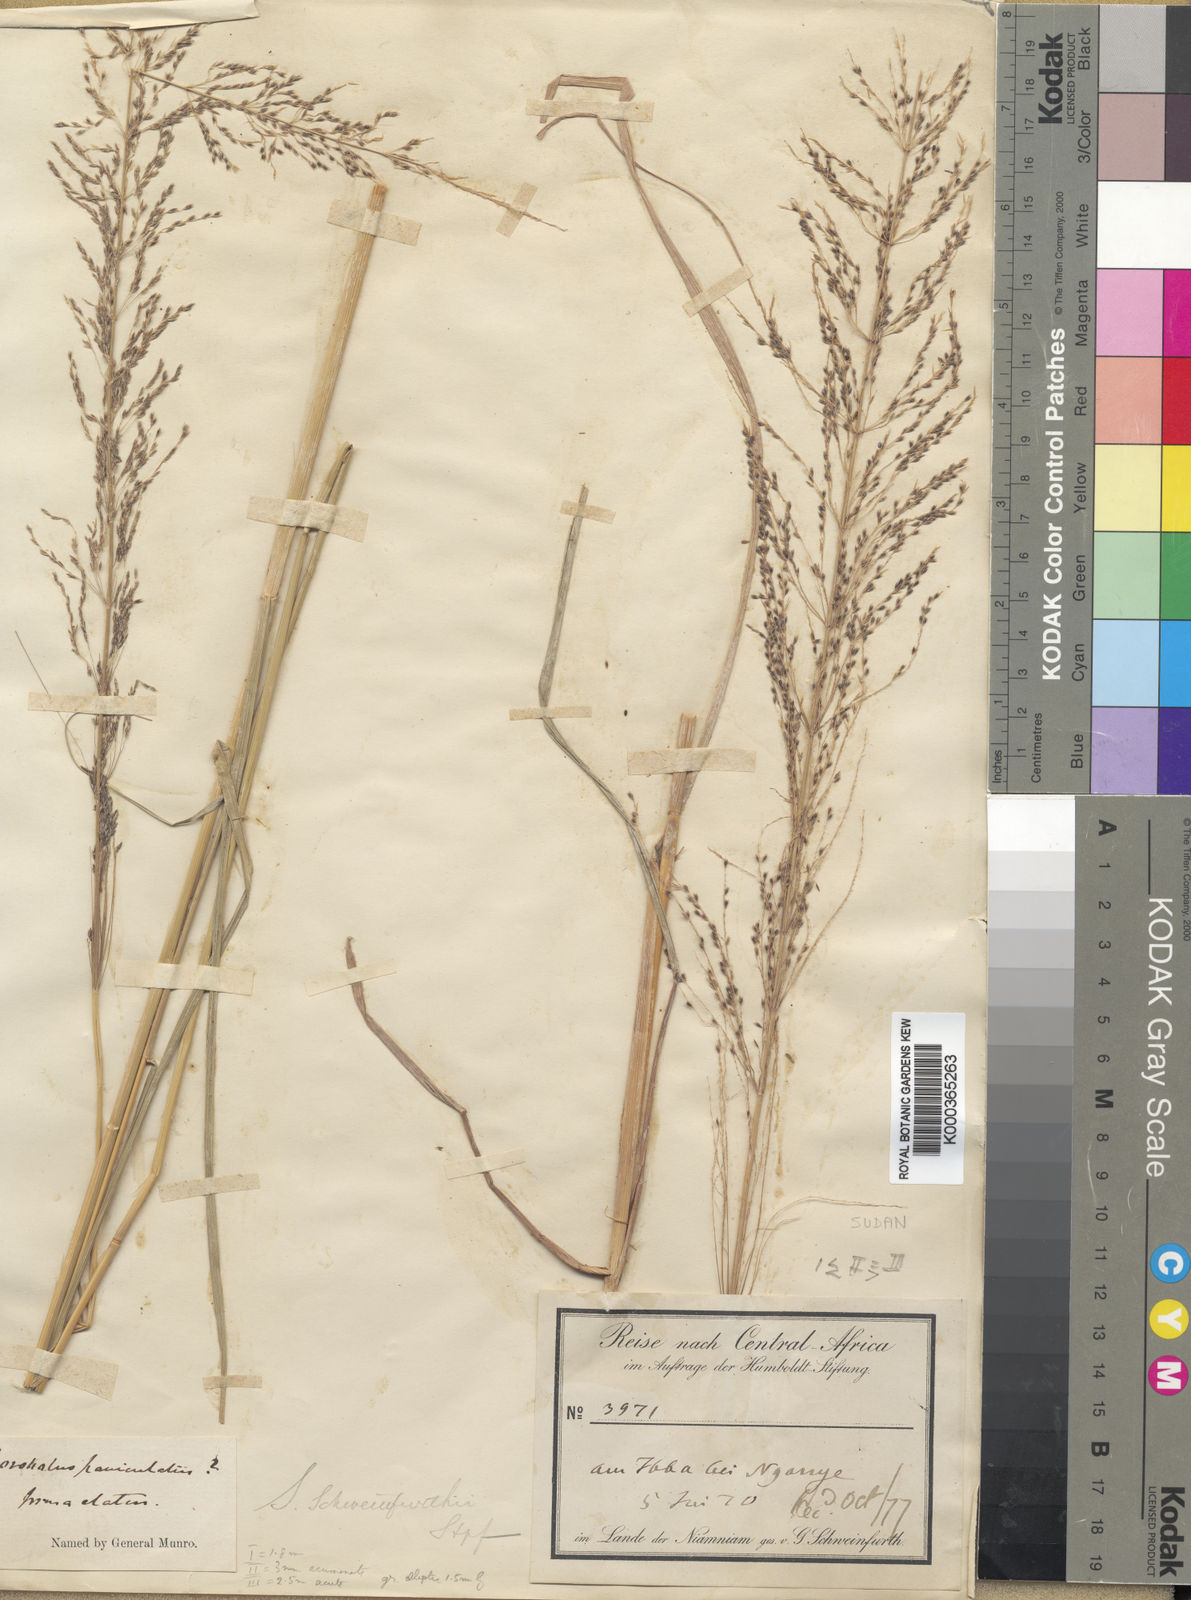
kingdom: Plantae
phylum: Tracheophyta
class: Liliopsida
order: Poales
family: Poaceae
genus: Sporobolus
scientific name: Sporobolus sanguineus
